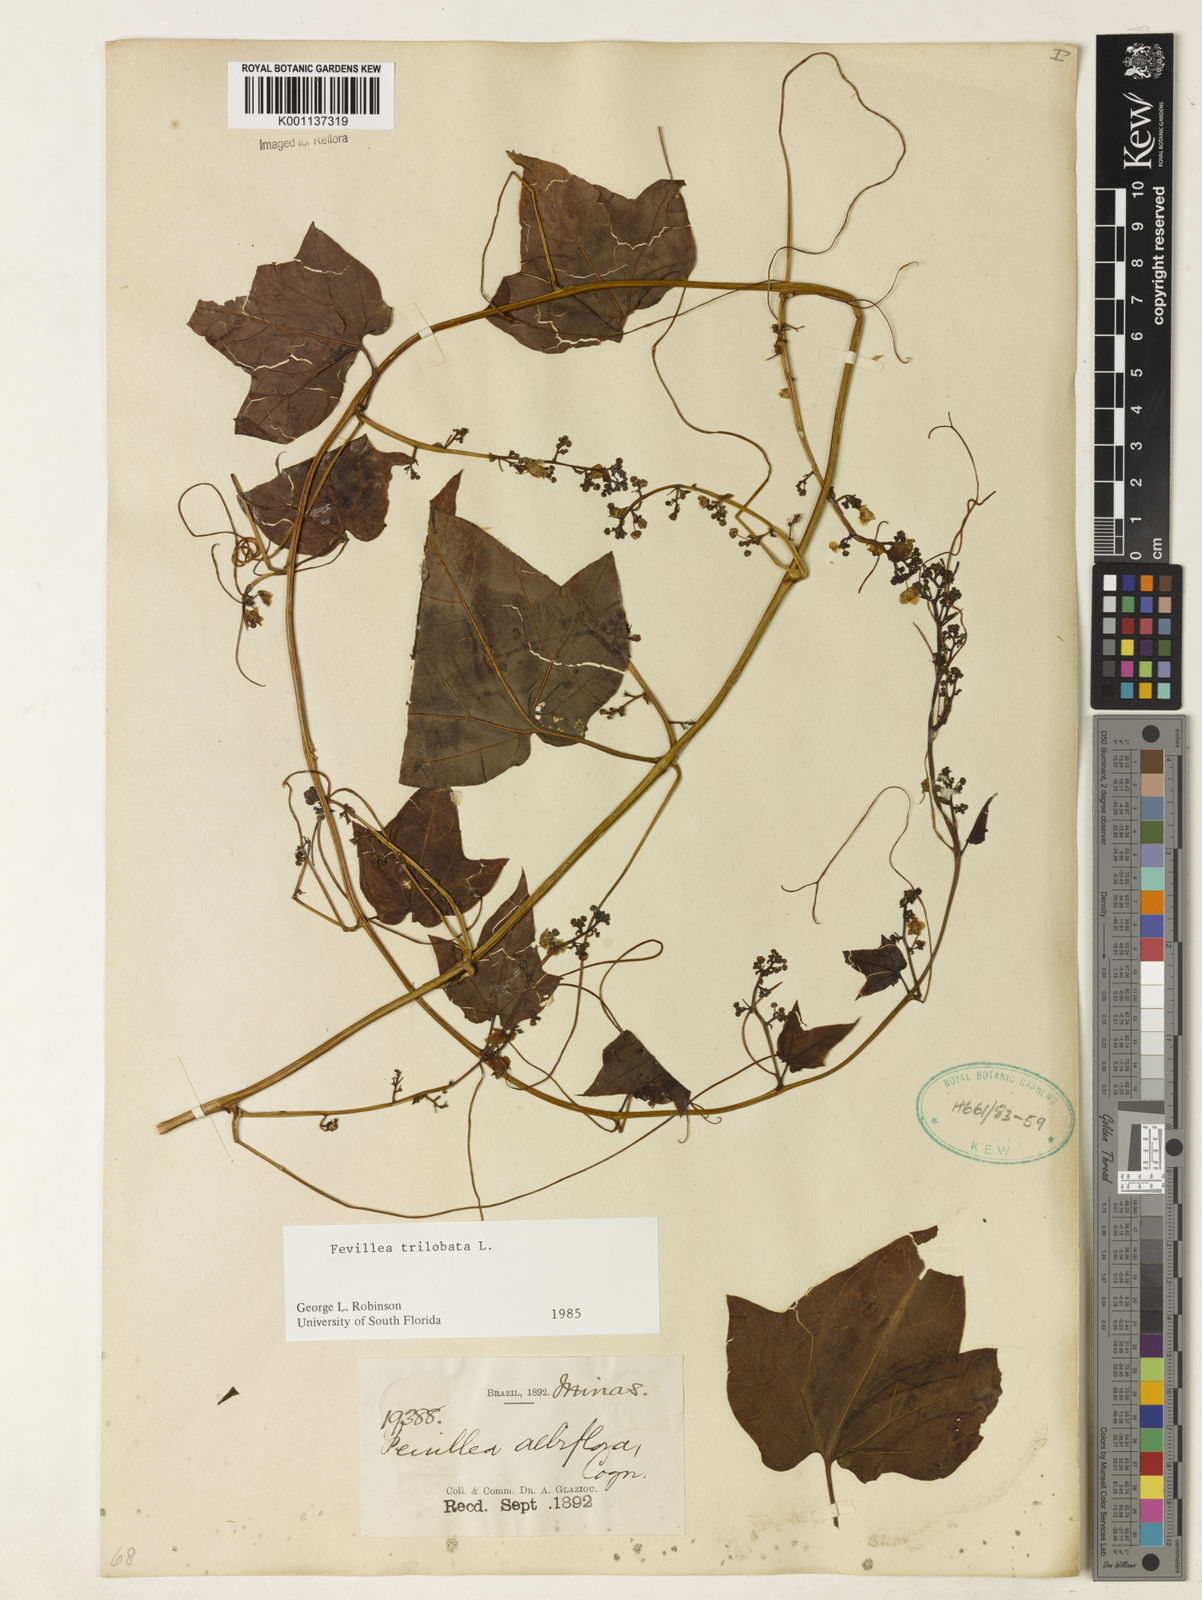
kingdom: Plantae
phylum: Tracheophyta
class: Magnoliopsida
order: Cucurbitales
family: Cucurbitaceae
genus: Fevillea
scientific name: Fevillea trilobata
